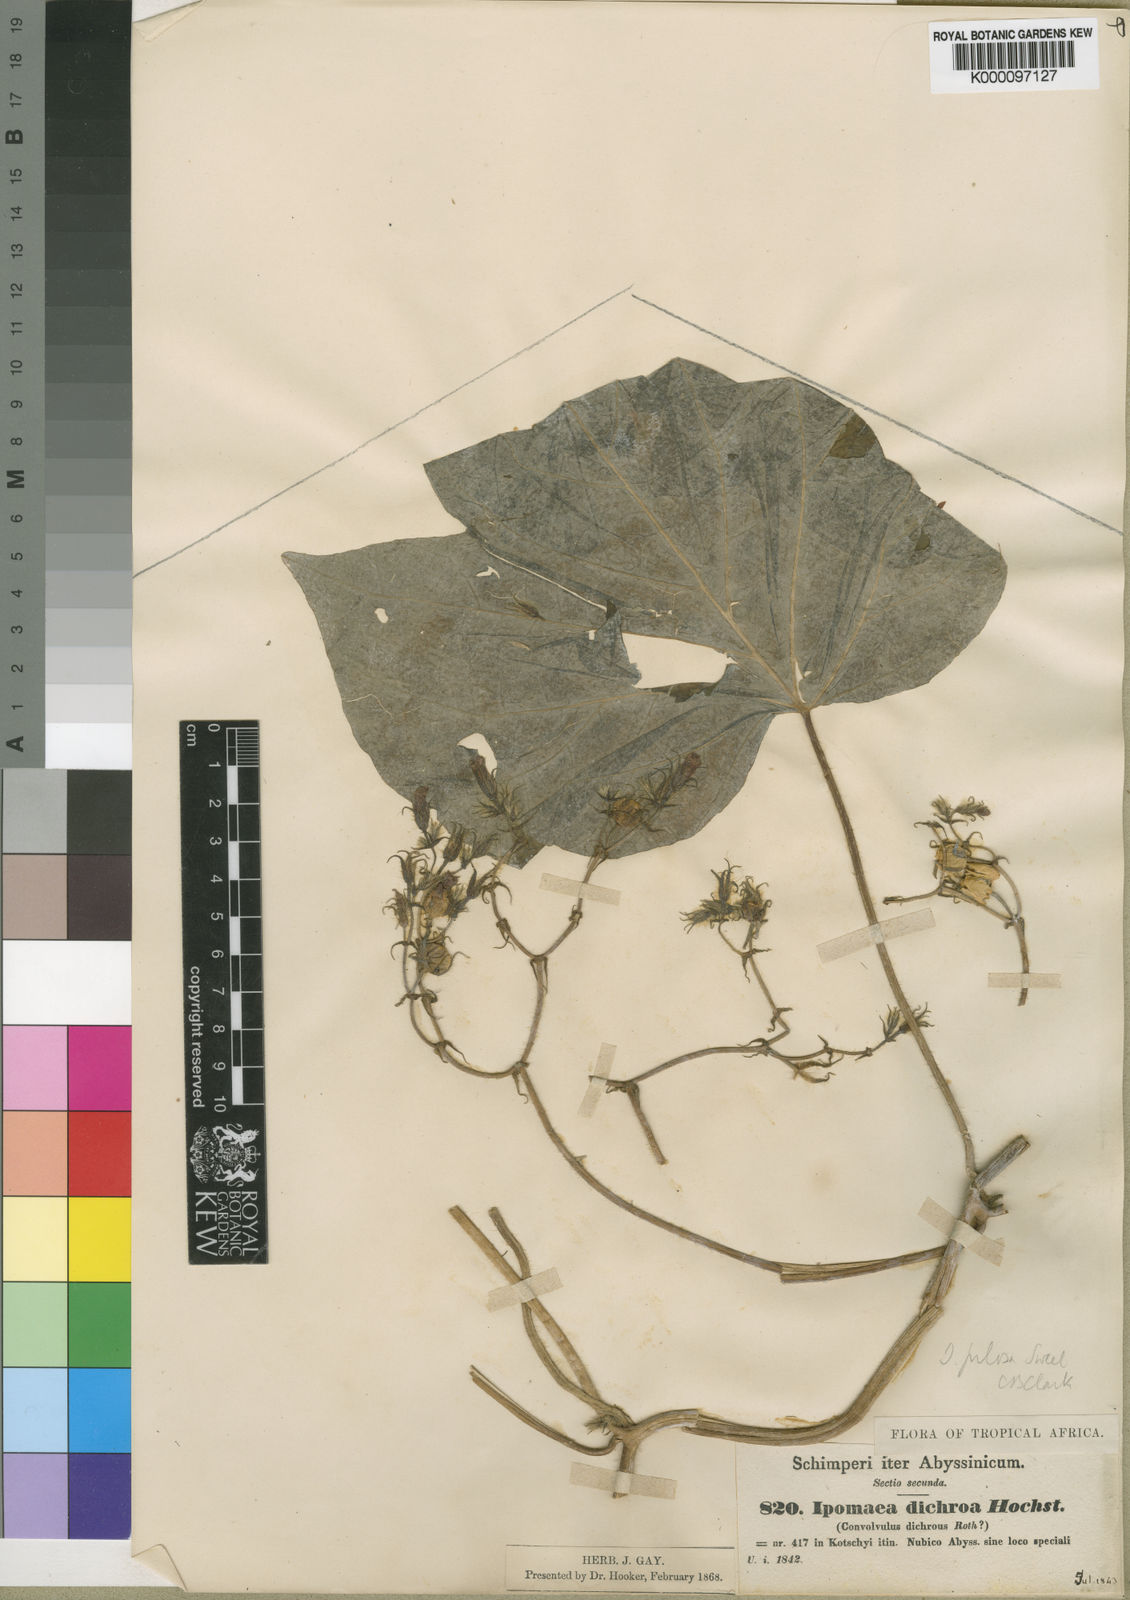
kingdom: Plantae
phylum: Tracheophyta
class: Magnoliopsida
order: Solanales
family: Convolvulaceae
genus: Ipomoea
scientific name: Ipomoea arachnosperma
